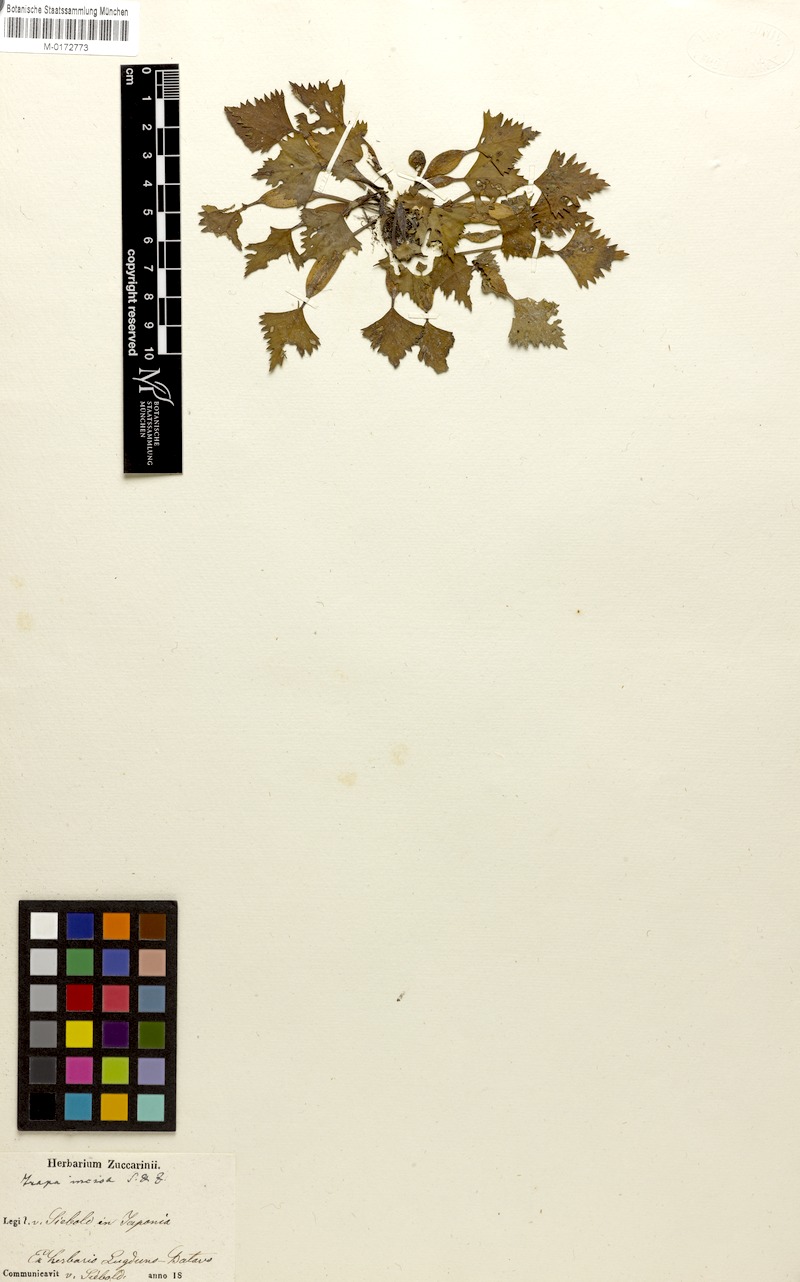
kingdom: Plantae
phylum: Tracheophyta
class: Magnoliopsida
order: Myrtales
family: Lythraceae
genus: Trapa
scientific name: Trapa incisa
